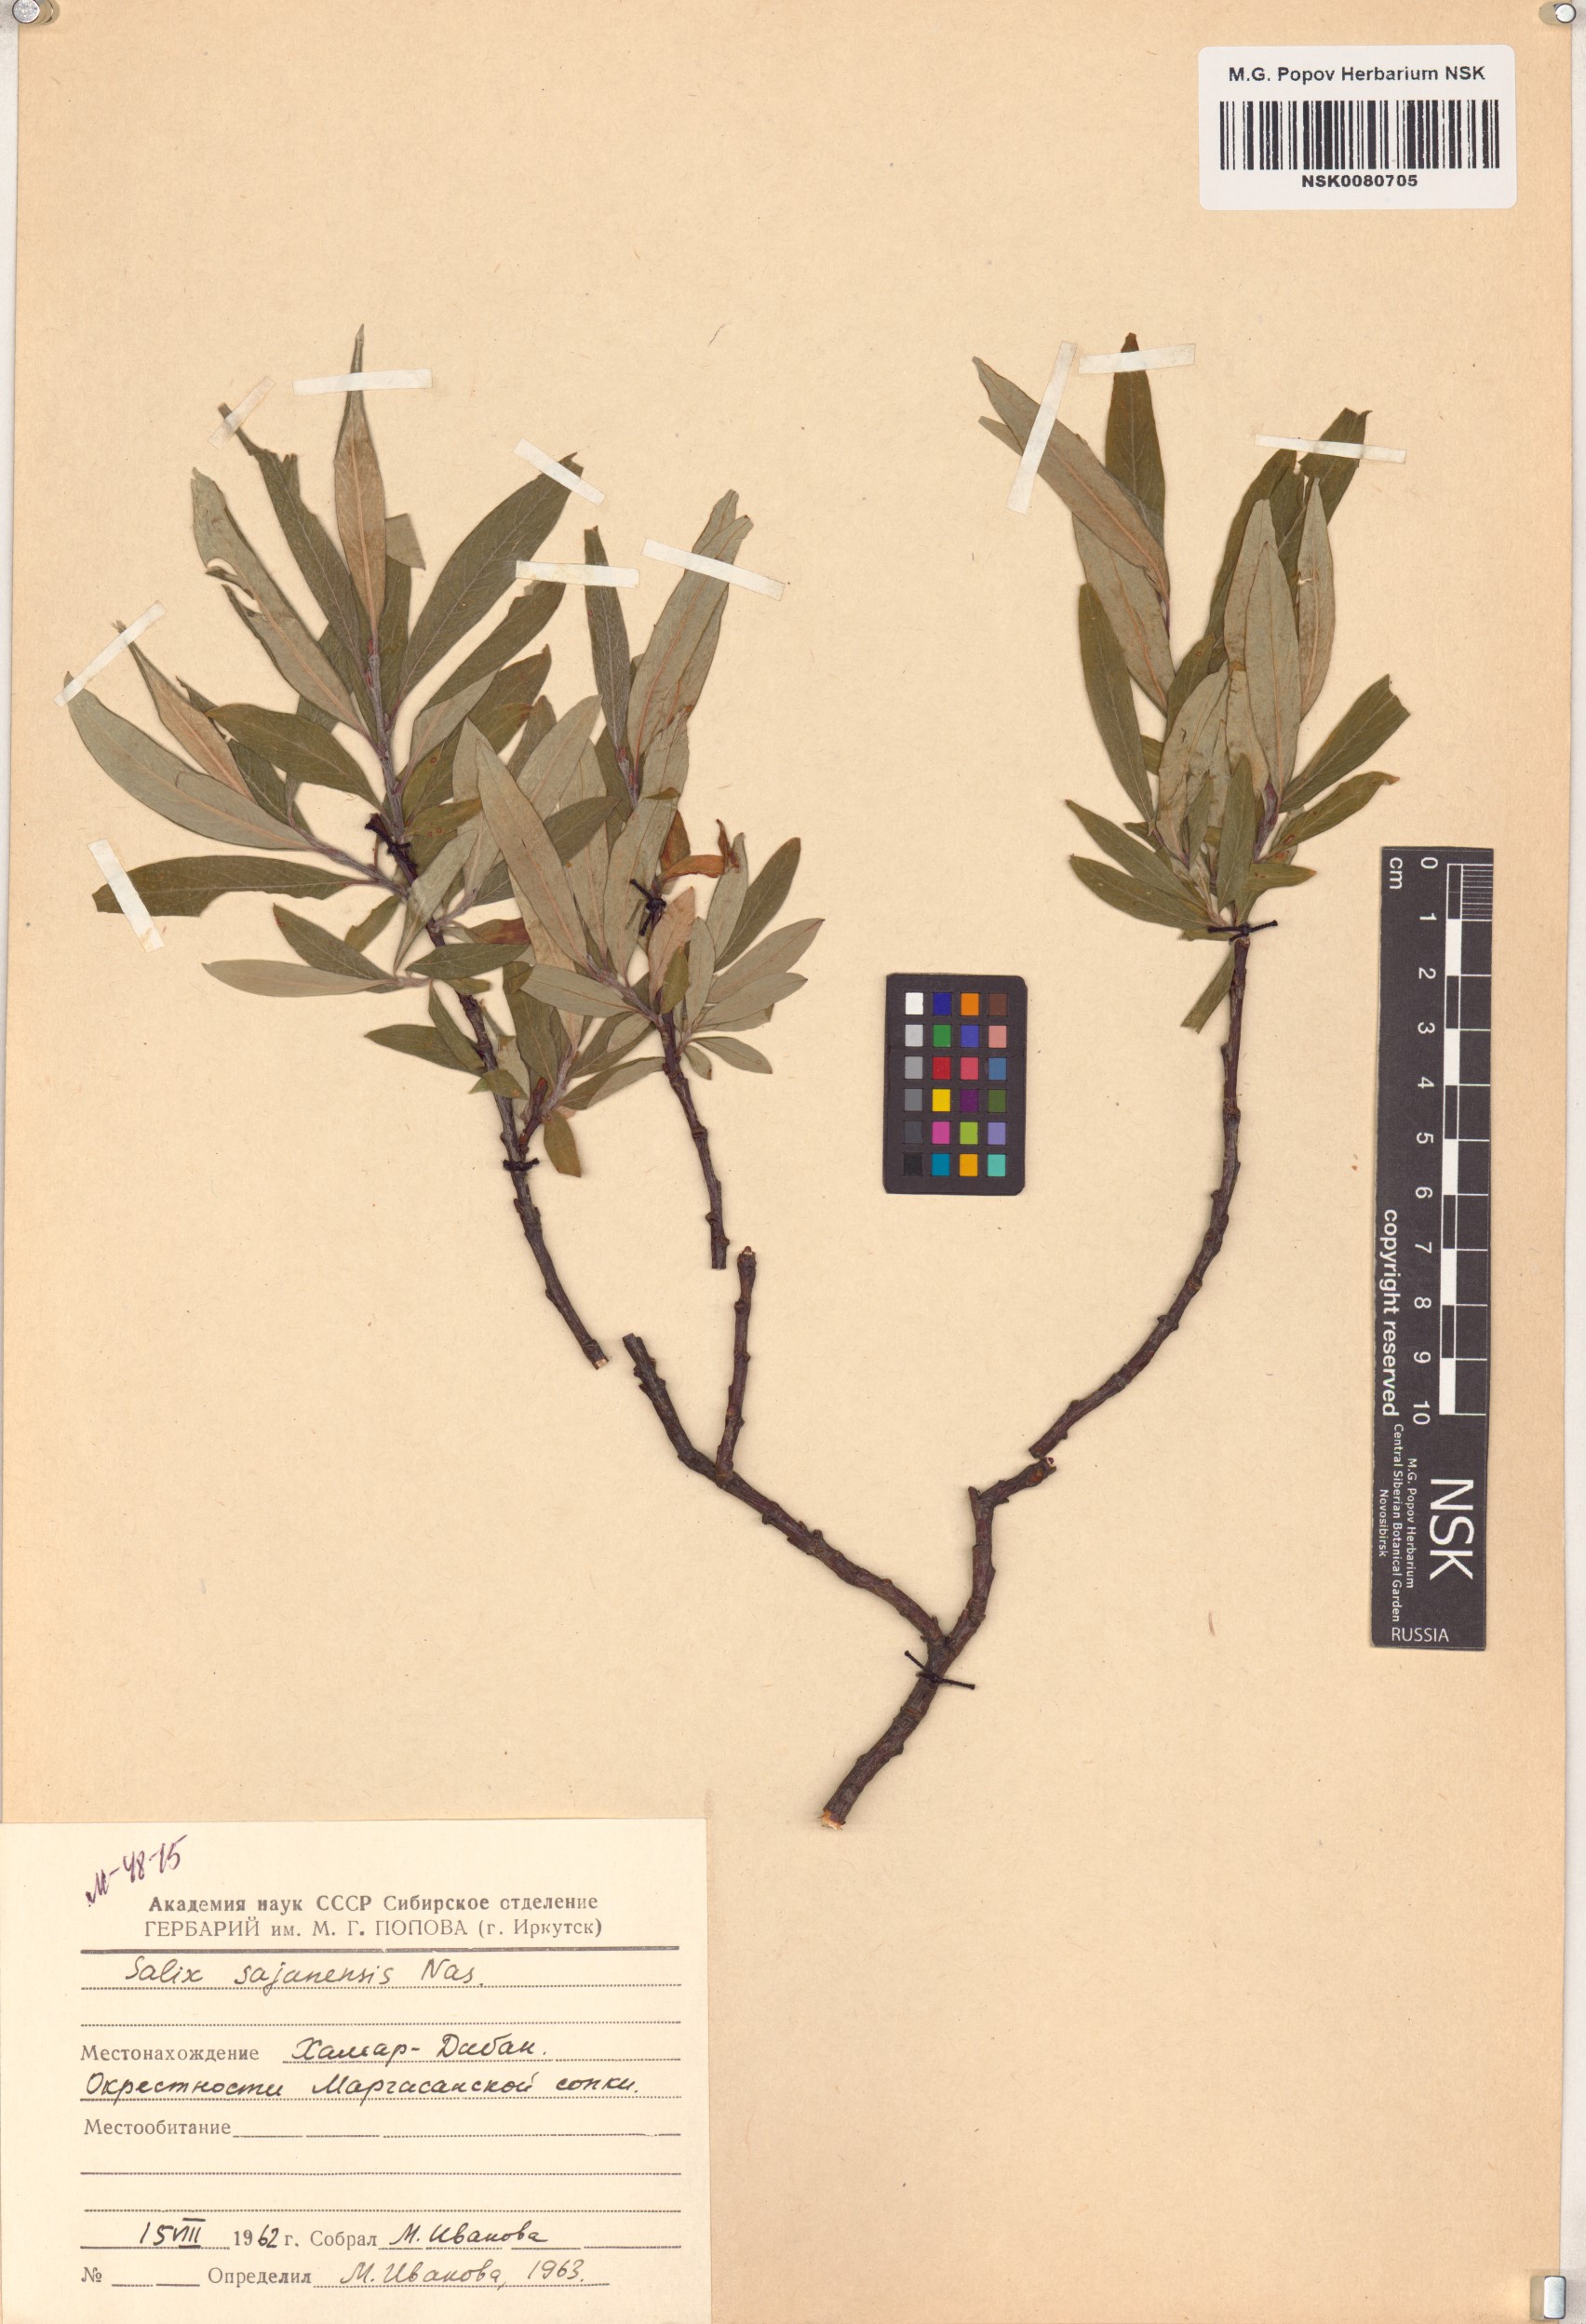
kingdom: Plantae
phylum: Tracheophyta
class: Magnoliopsida
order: Malpighiales
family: Salicaceae
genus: Salix
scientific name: Salix sajanensis
